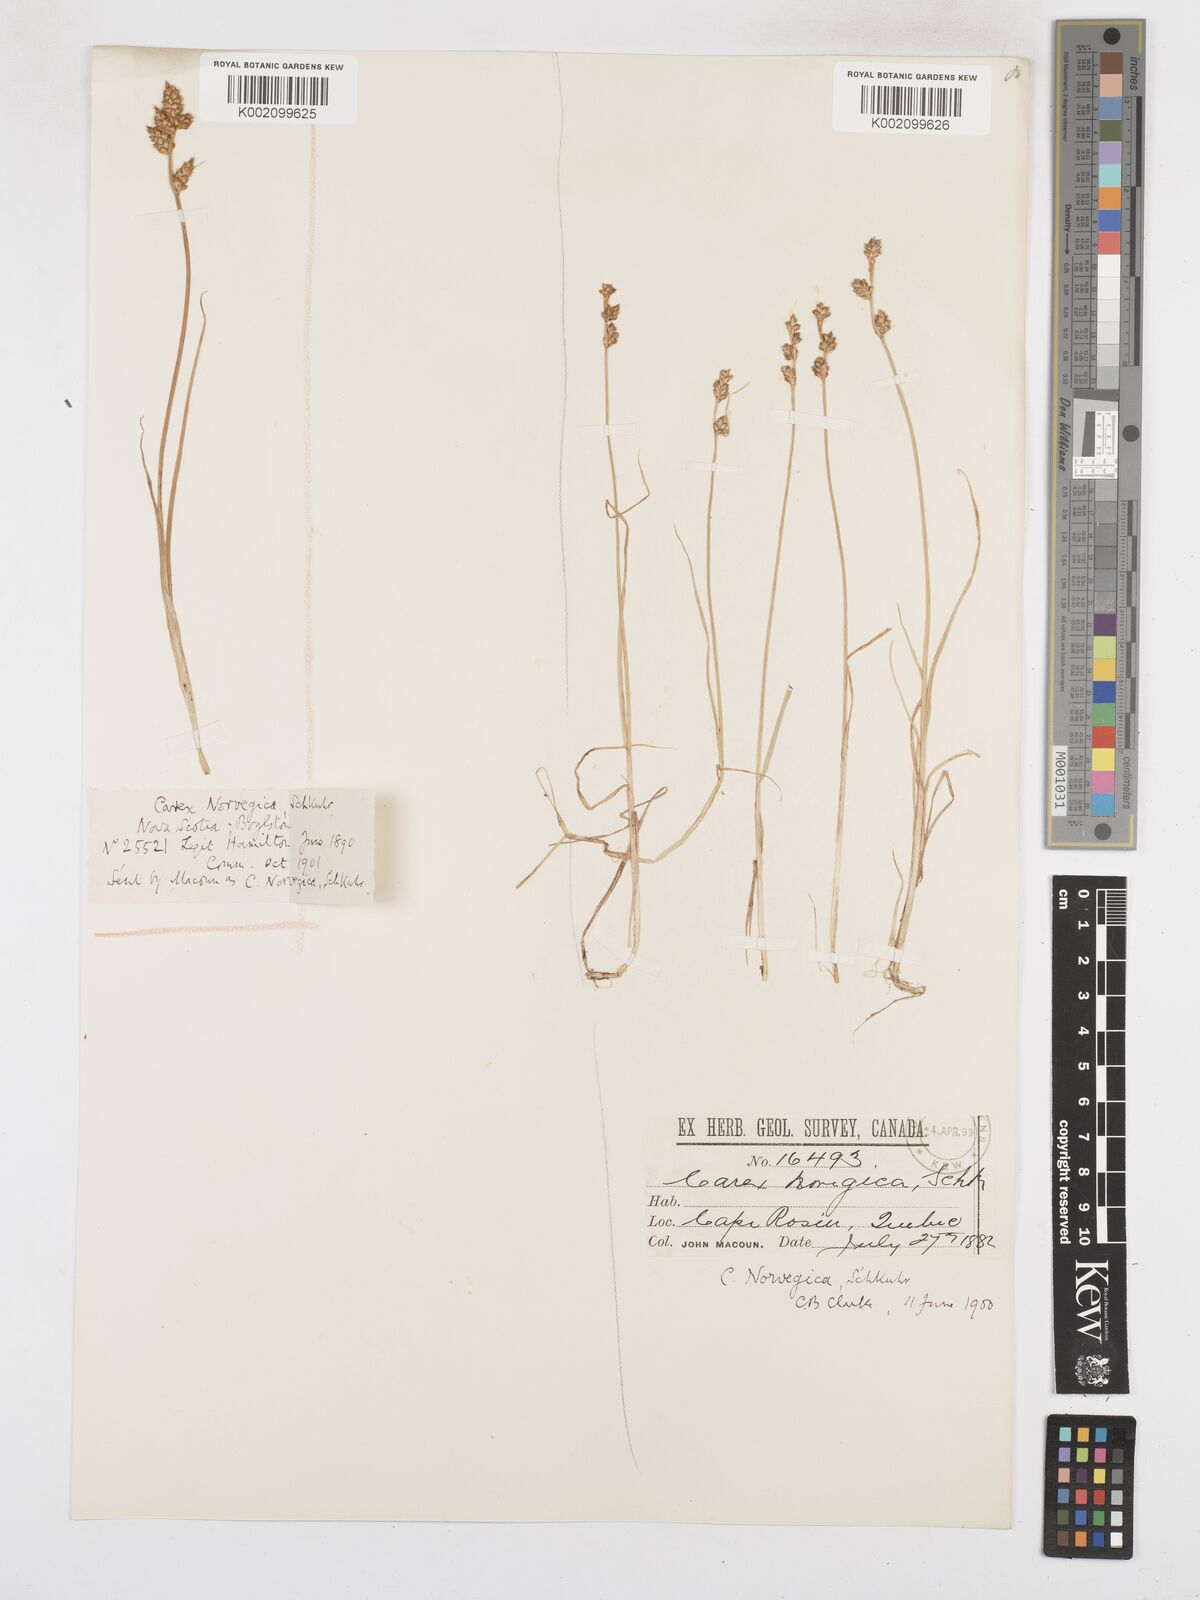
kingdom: Plantae
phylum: Tracheophyta
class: Liliopsida
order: Poales
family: Cyperaceae
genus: Carex
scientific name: Carex mackenziei
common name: Mackenzie's sedge
